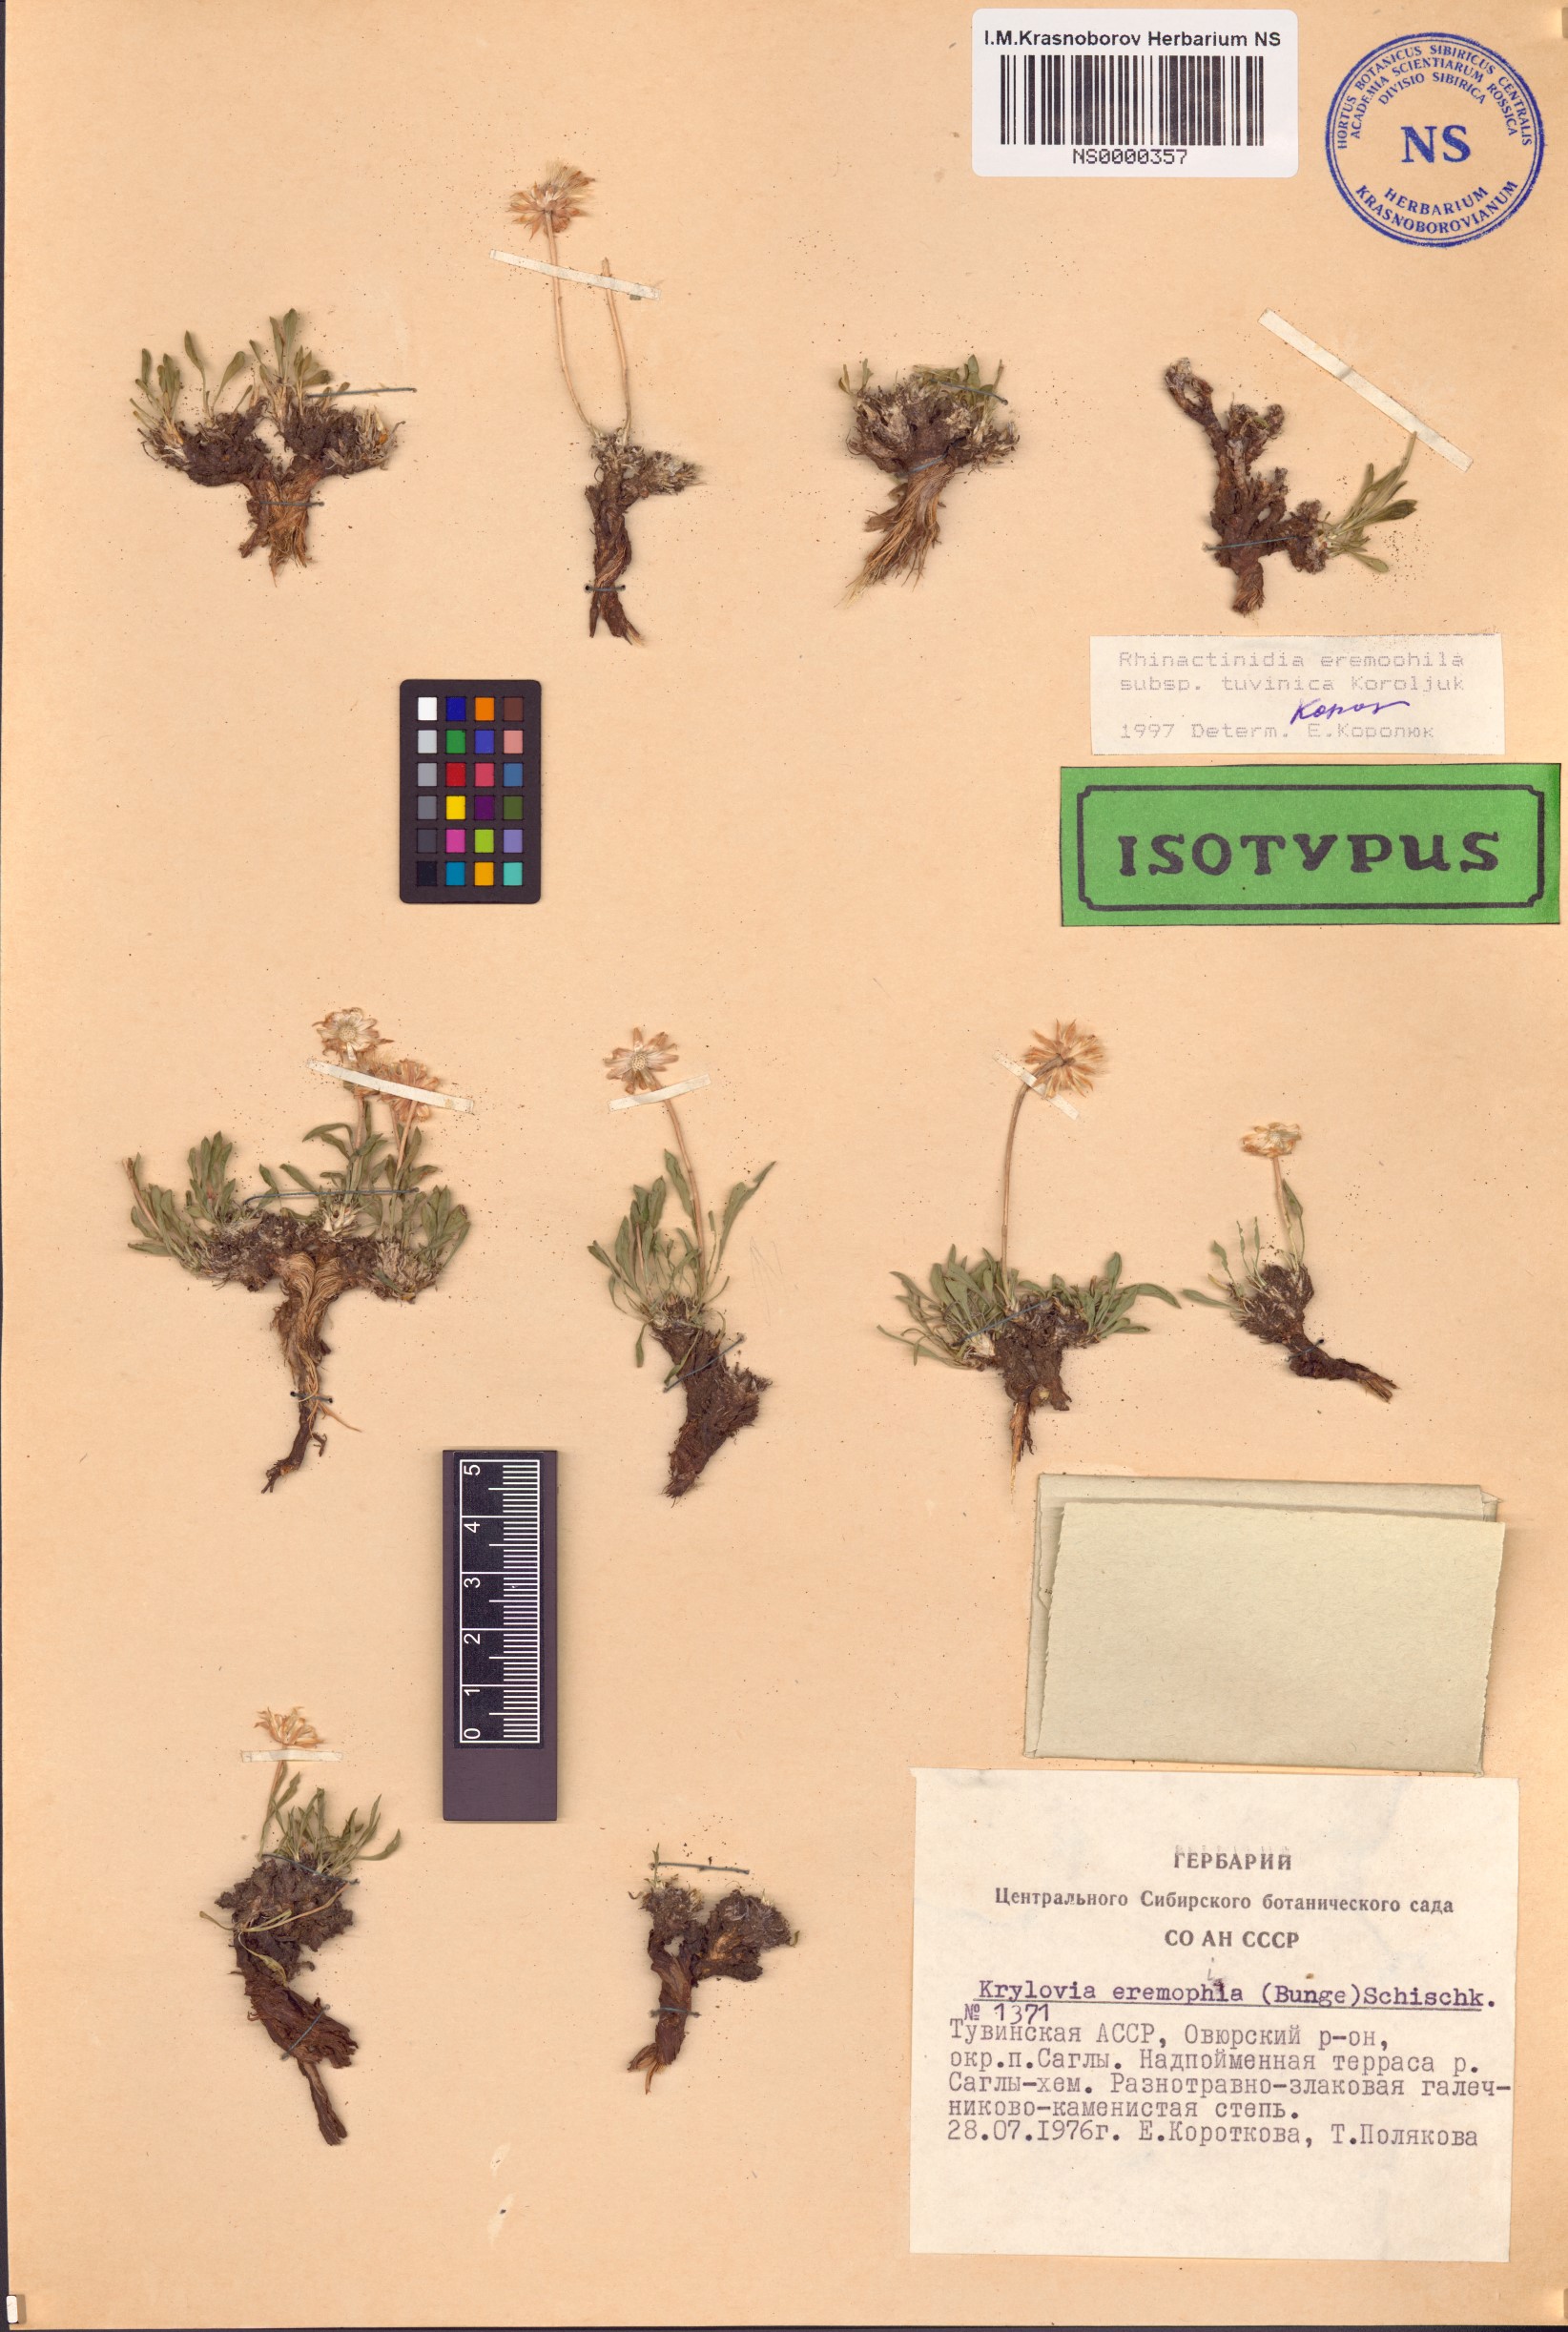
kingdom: Plantae
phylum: Tracheophyta
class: Magnoliopsida
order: Asterales
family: Asteraceae
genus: Rhinactinidia
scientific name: Rhinactinidia eremophila
